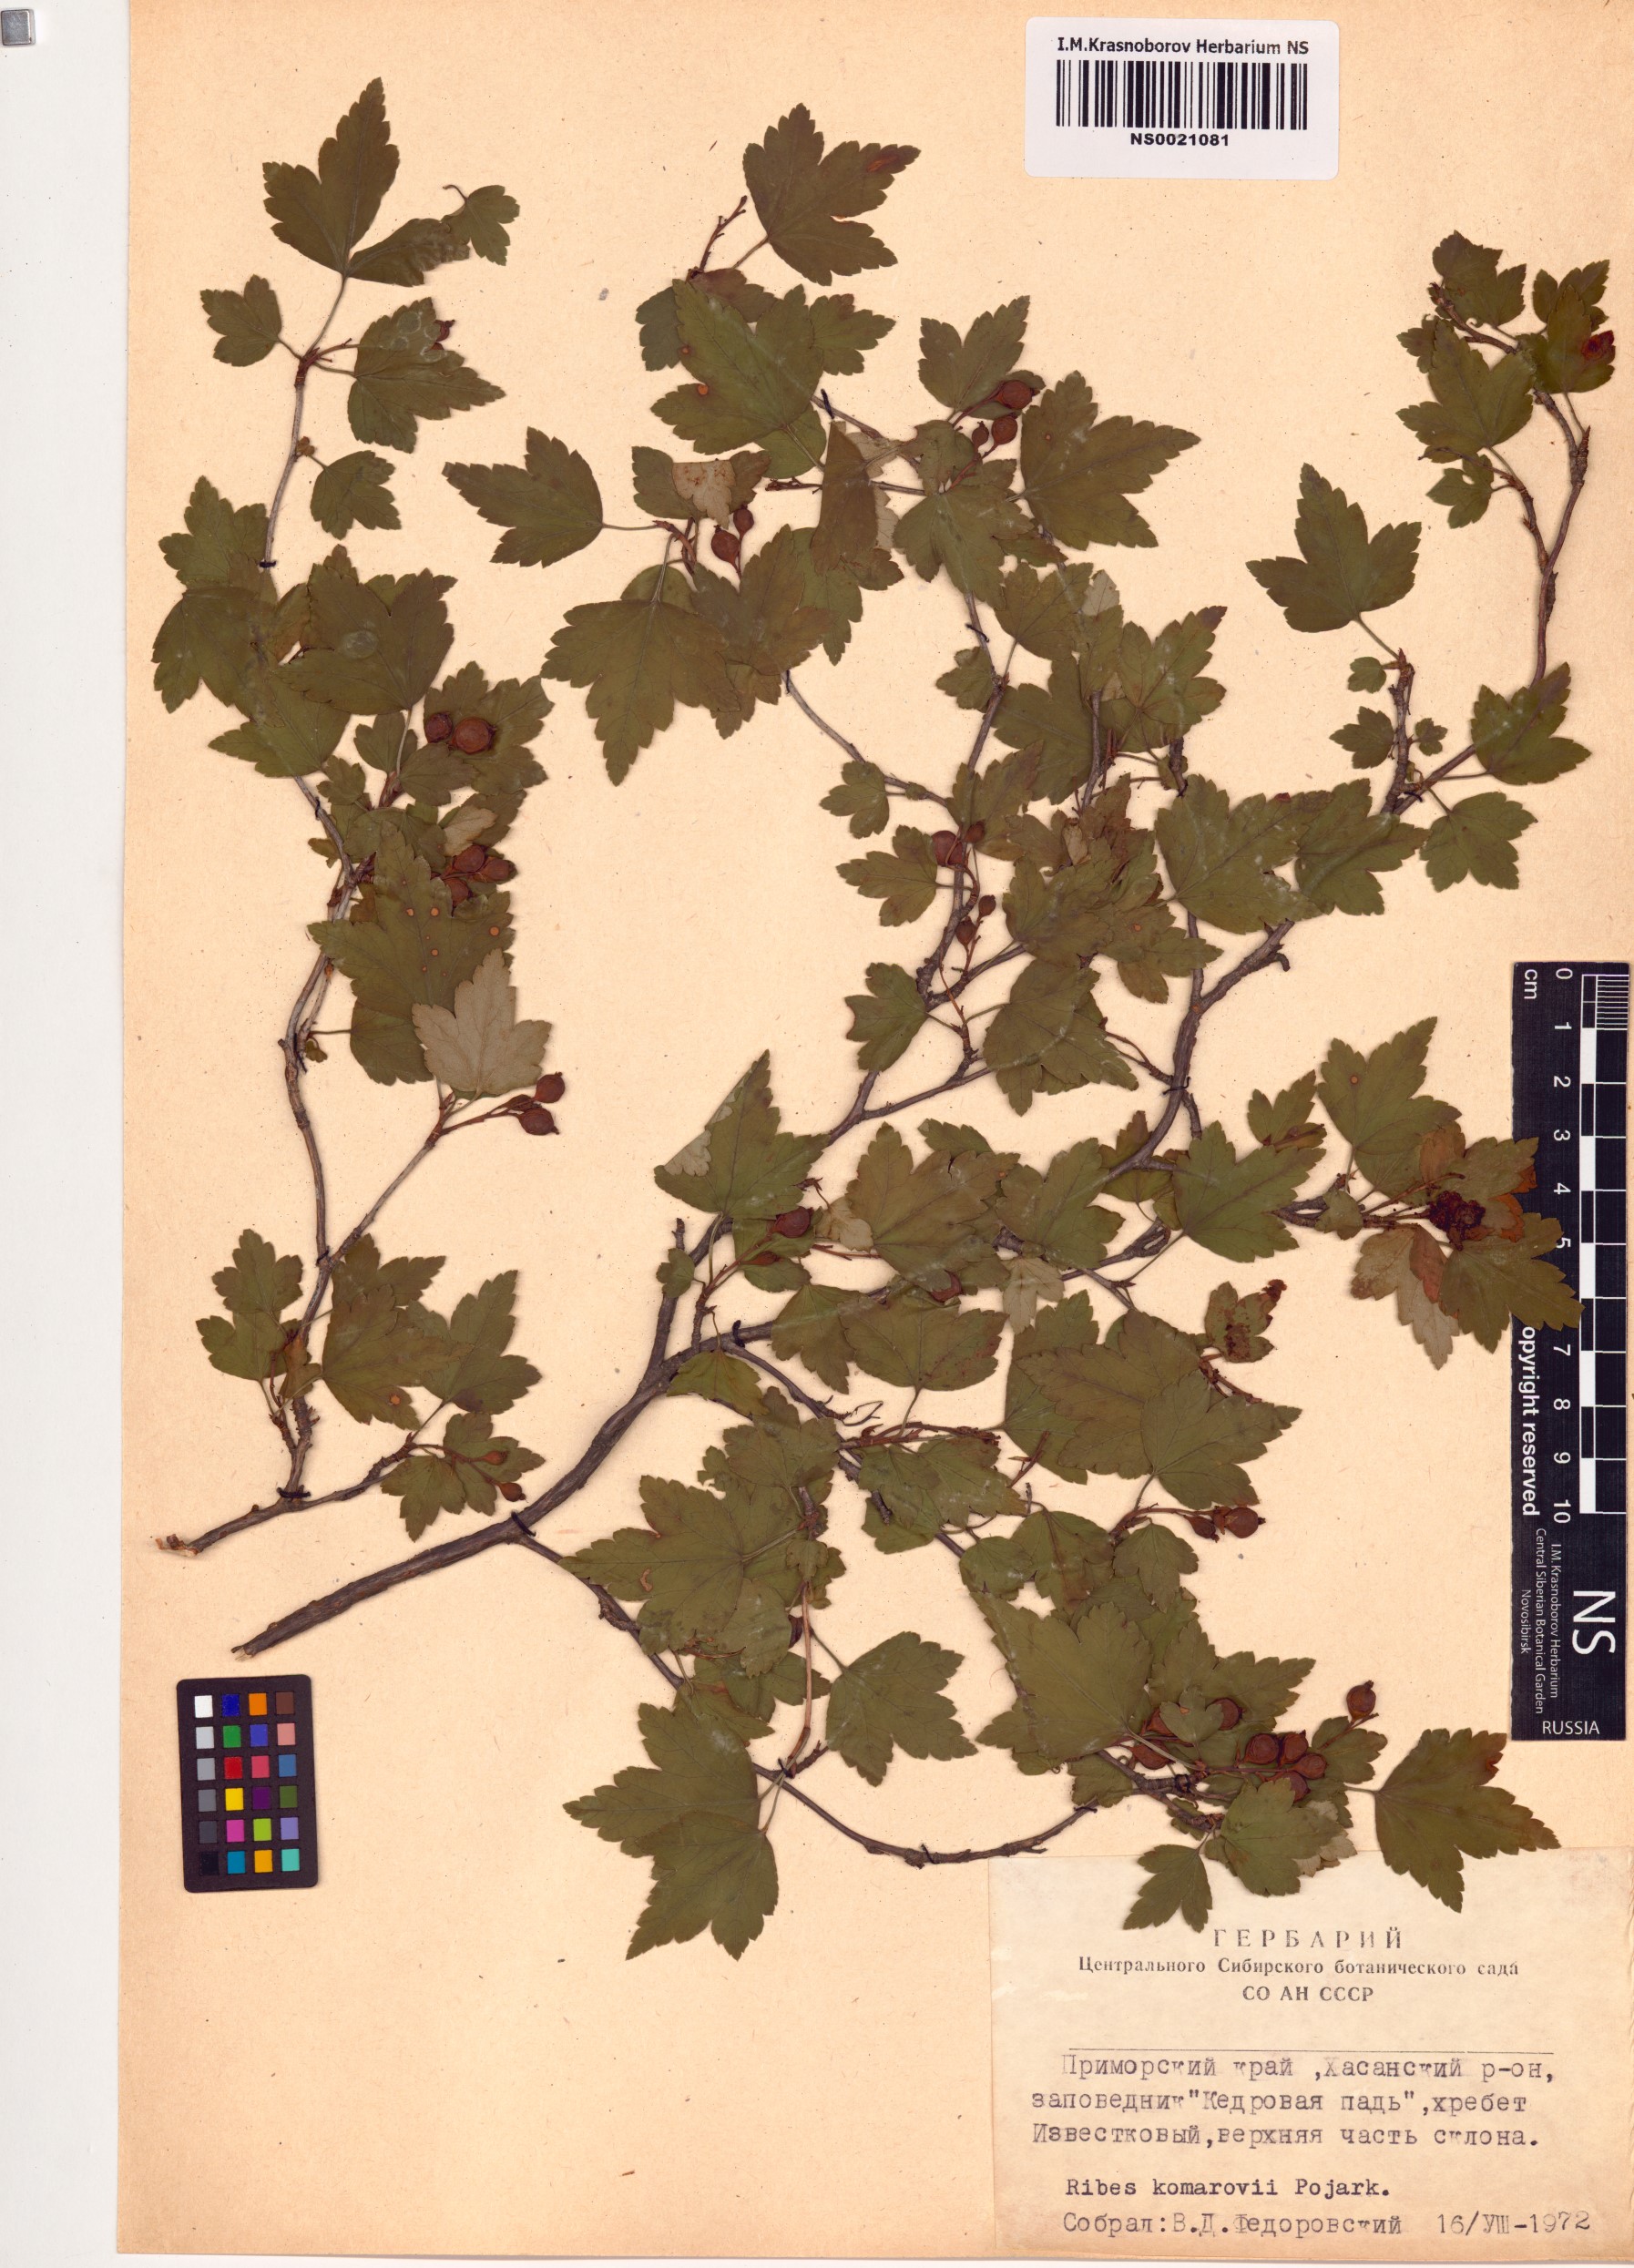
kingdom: Plantae
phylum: Tracheophyta
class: Magnoliopsida
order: Saxifragales
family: Grossulariaceae
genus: Ribes
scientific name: Ribes komarovii
